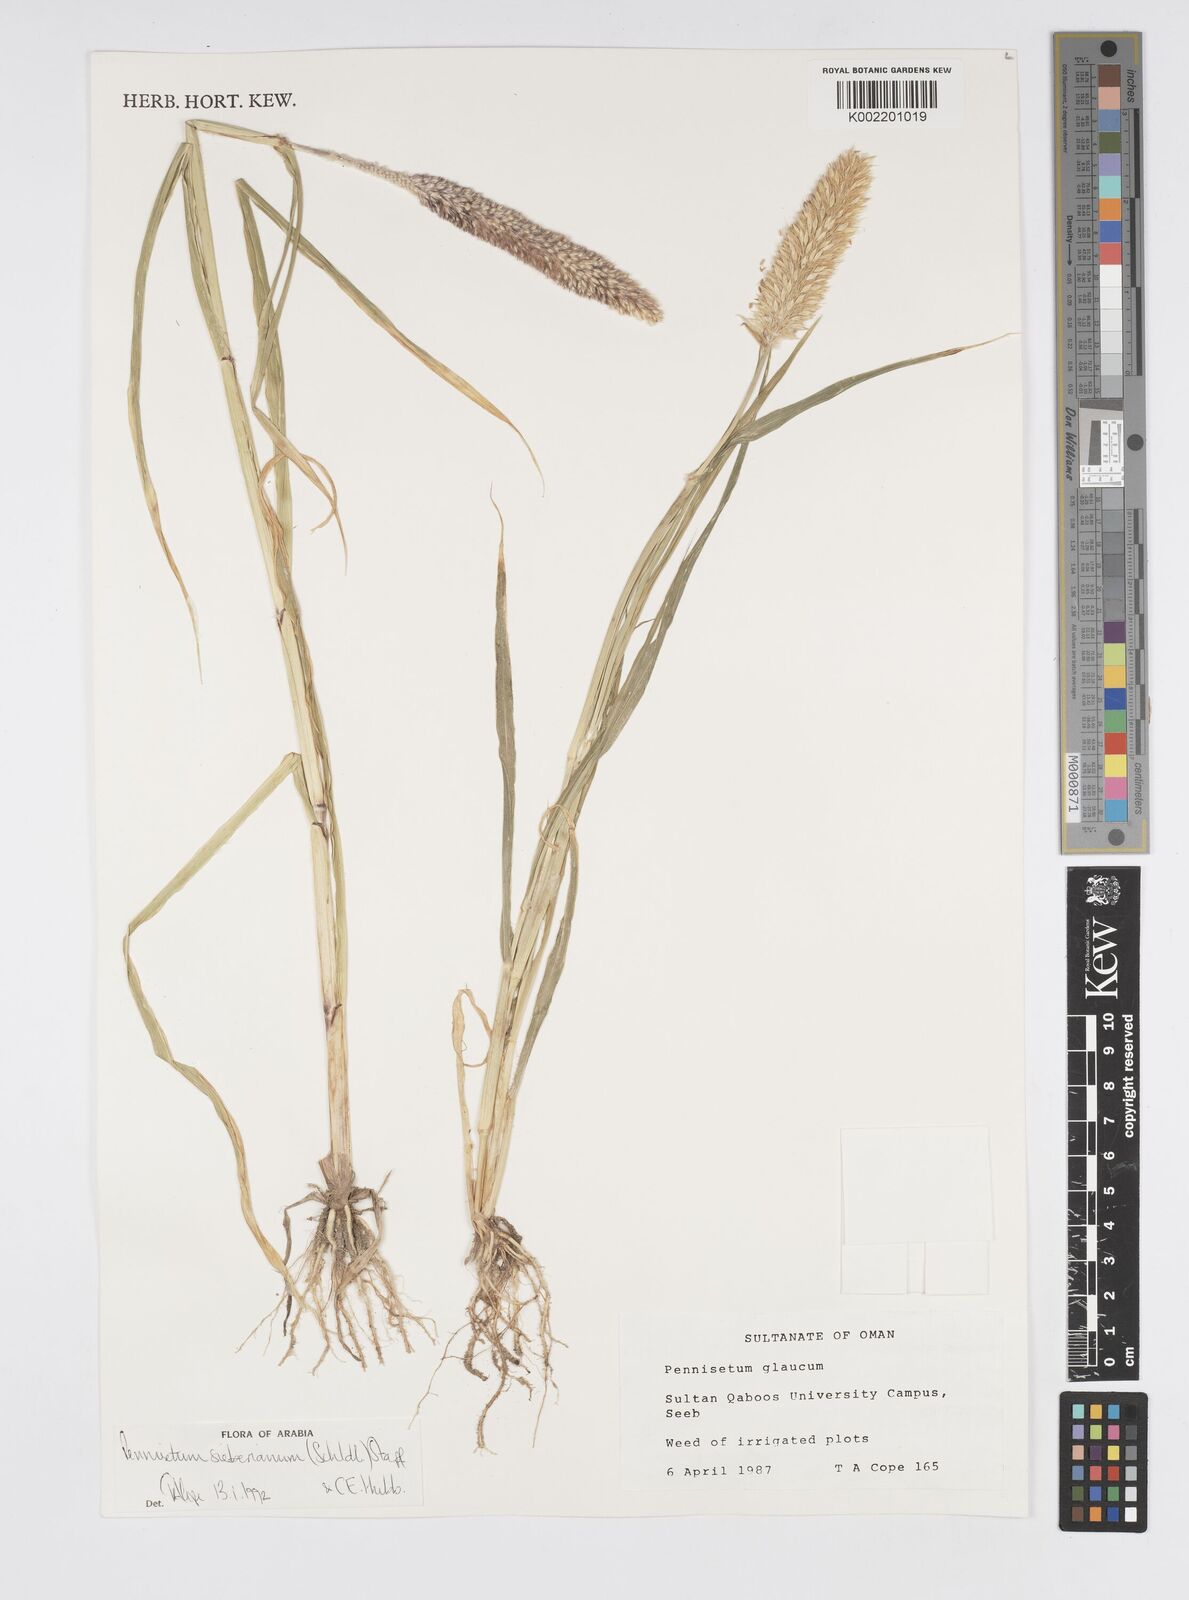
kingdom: Plantae
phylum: Tracheophyta
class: Liliopsida
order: Poales
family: Poaceae
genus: Cenchrus
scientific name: Cenchrus sieberianus
